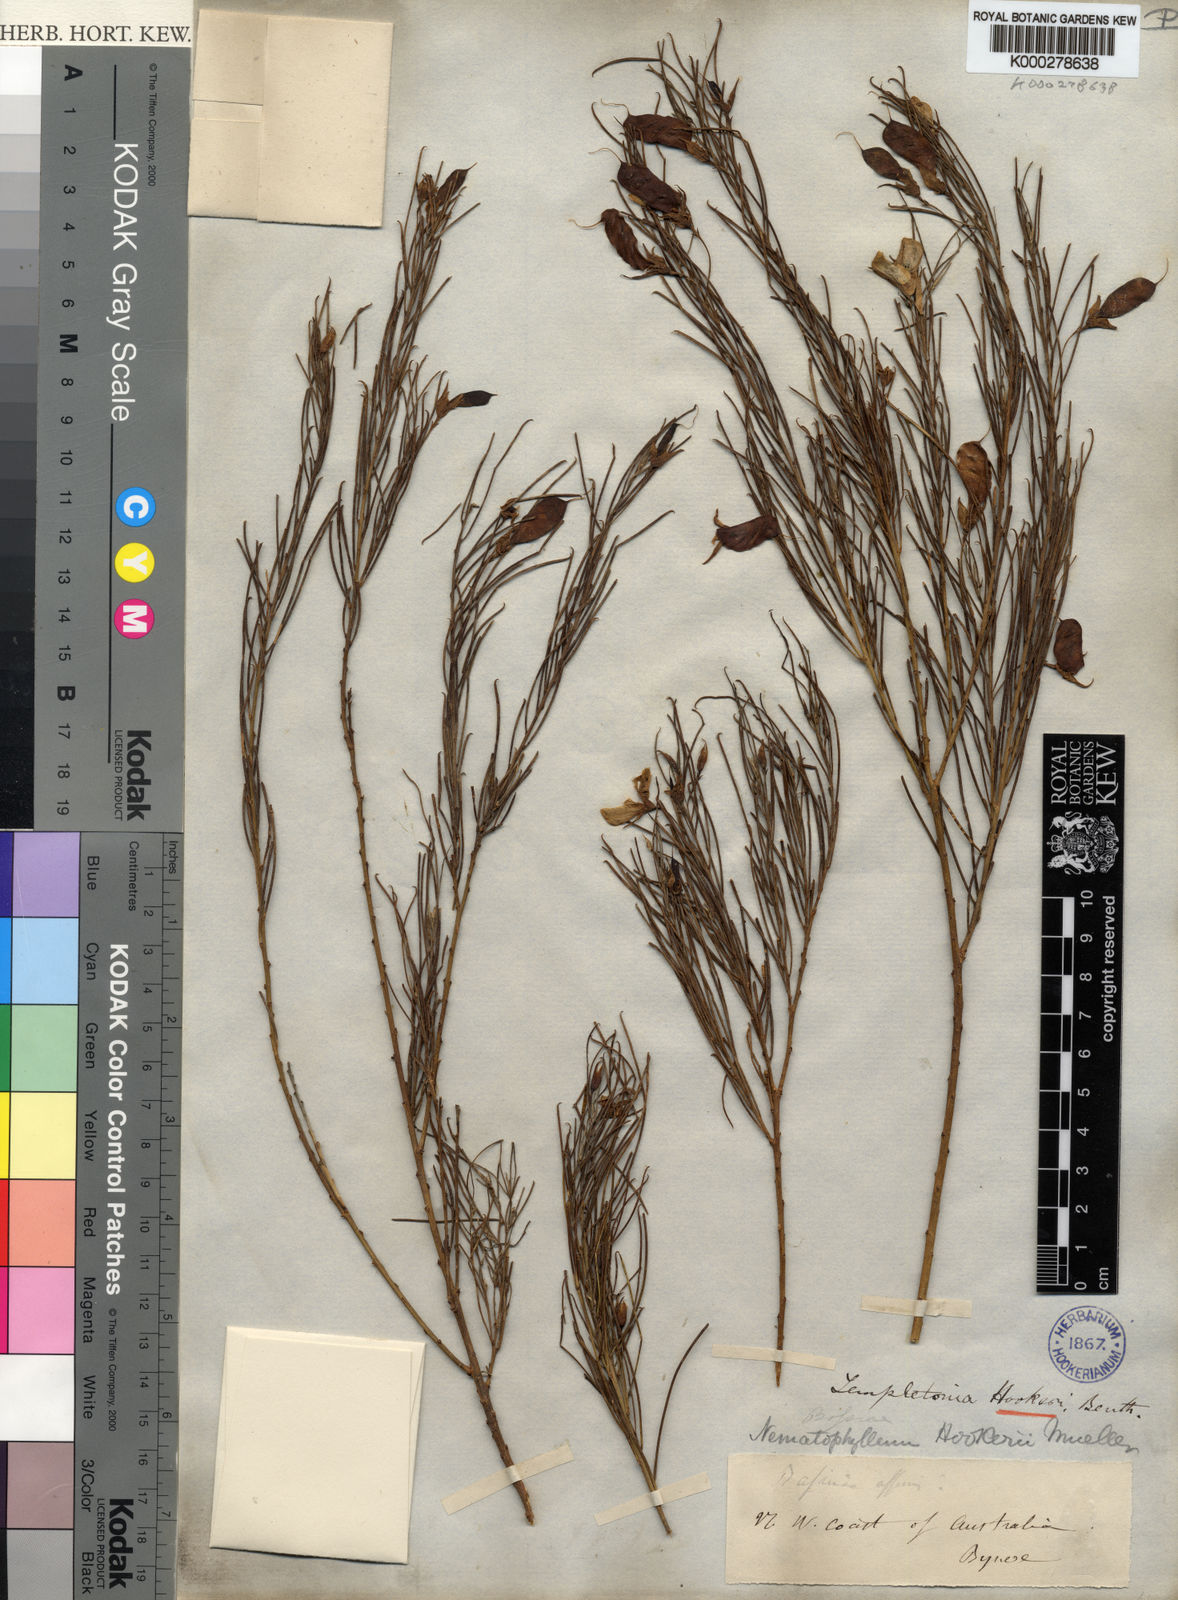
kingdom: Plantae
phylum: Tracheophyta
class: Magnoliopsida
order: Fabales
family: Fabaceae
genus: Templetonia
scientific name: Templetonia hookeri
